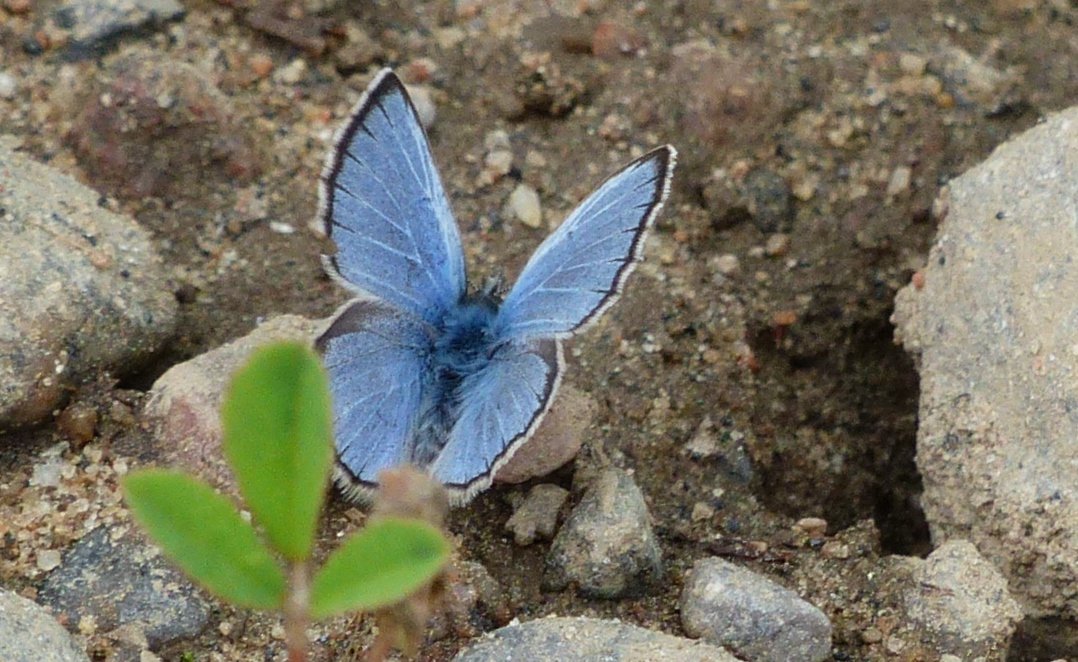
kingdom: Animalia
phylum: Arthropoda
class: Insecta
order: Lepidoptera
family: Lycaenidae
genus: Glaucopsyche
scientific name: Glaucopsyche lygdamus
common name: Silvery Blue
